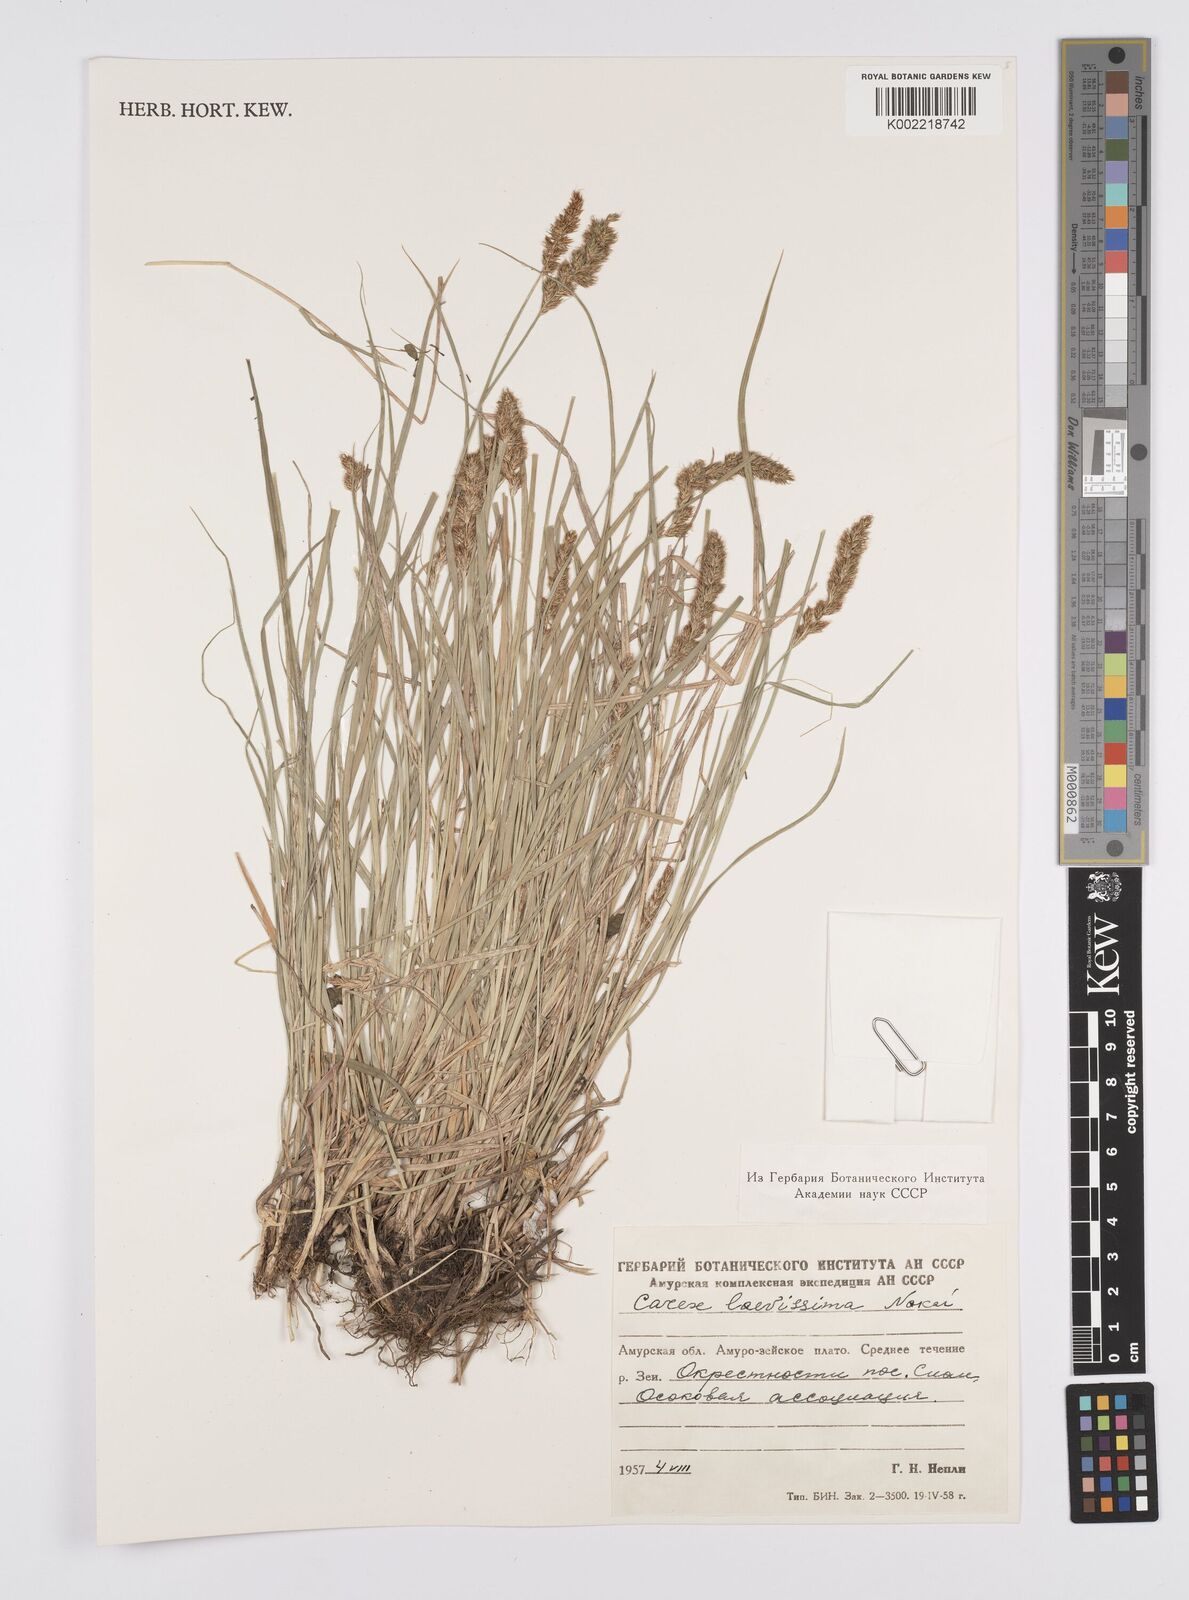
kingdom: Plantae
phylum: Tracheophyta
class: Liliopsida
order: Poales
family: Cyperaceae
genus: Carex
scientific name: Carex laevissima
